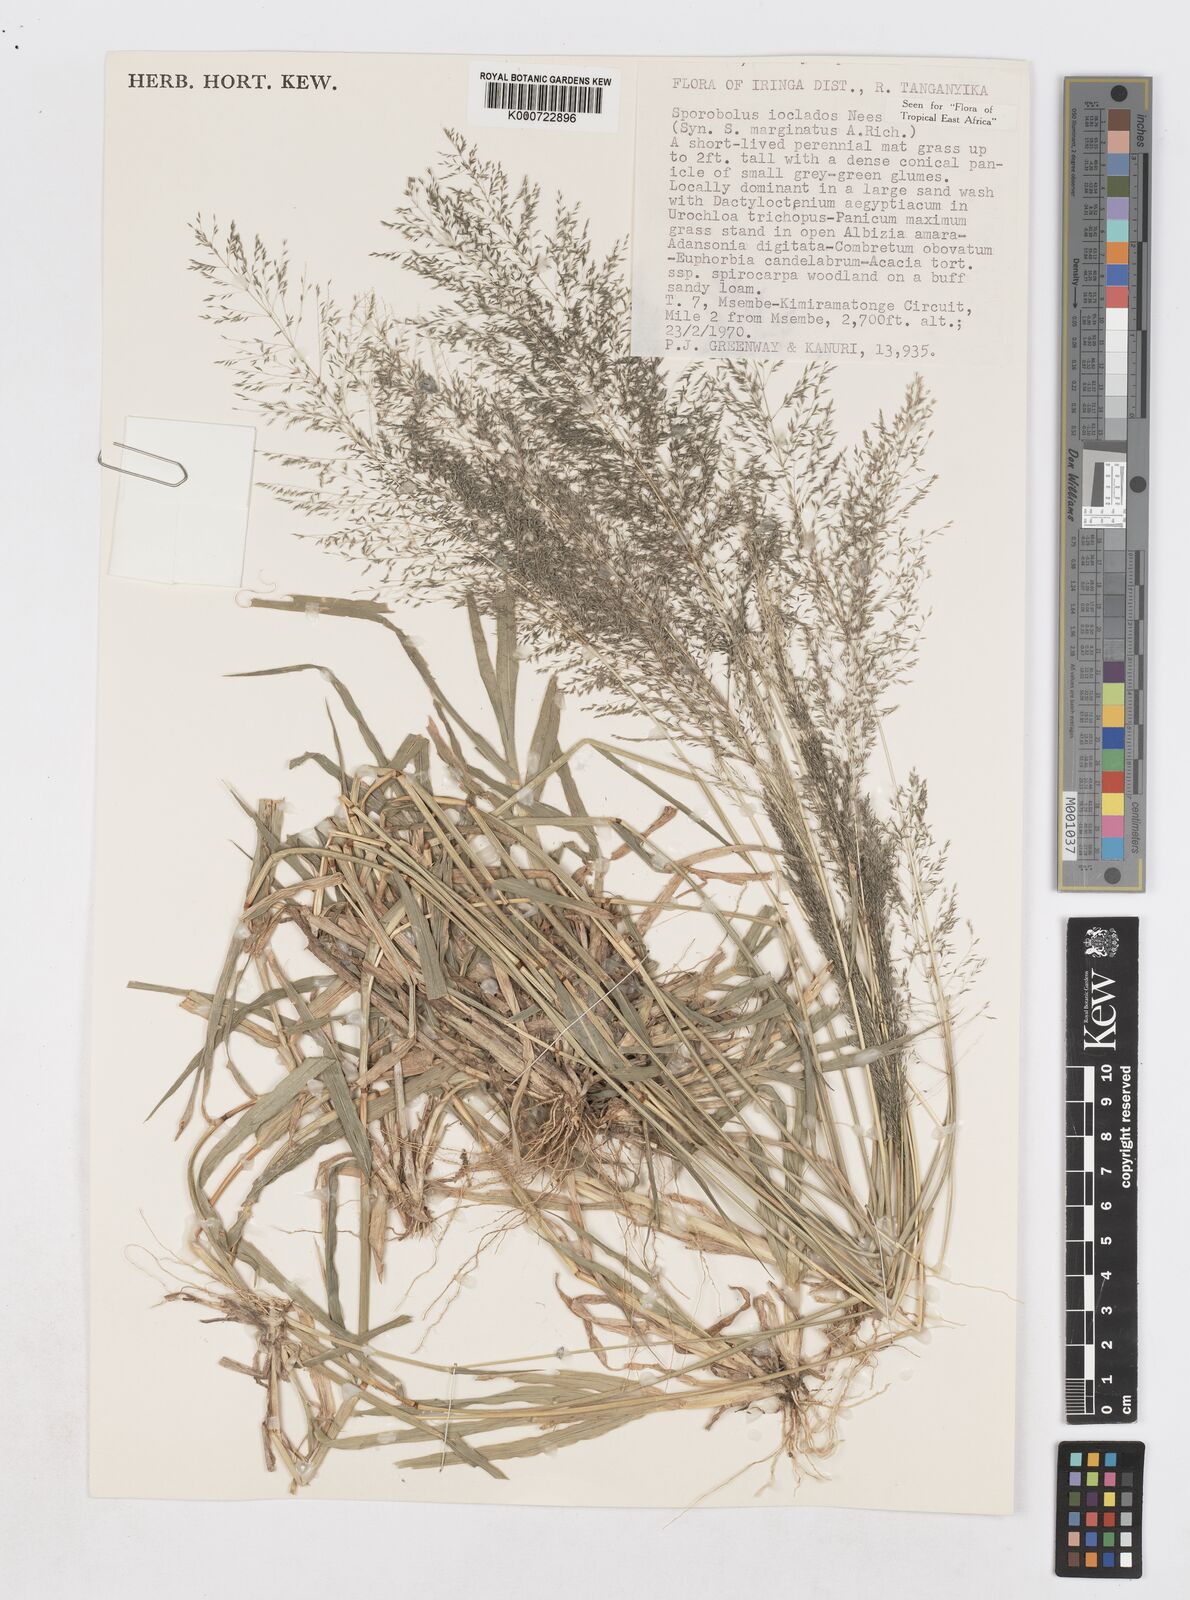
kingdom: Plantae
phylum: Tracheophyta
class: Liliopsida
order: Poales
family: Poaceae
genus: Sporobolus
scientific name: Sporobolus ioclados
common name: Pan dropseed
